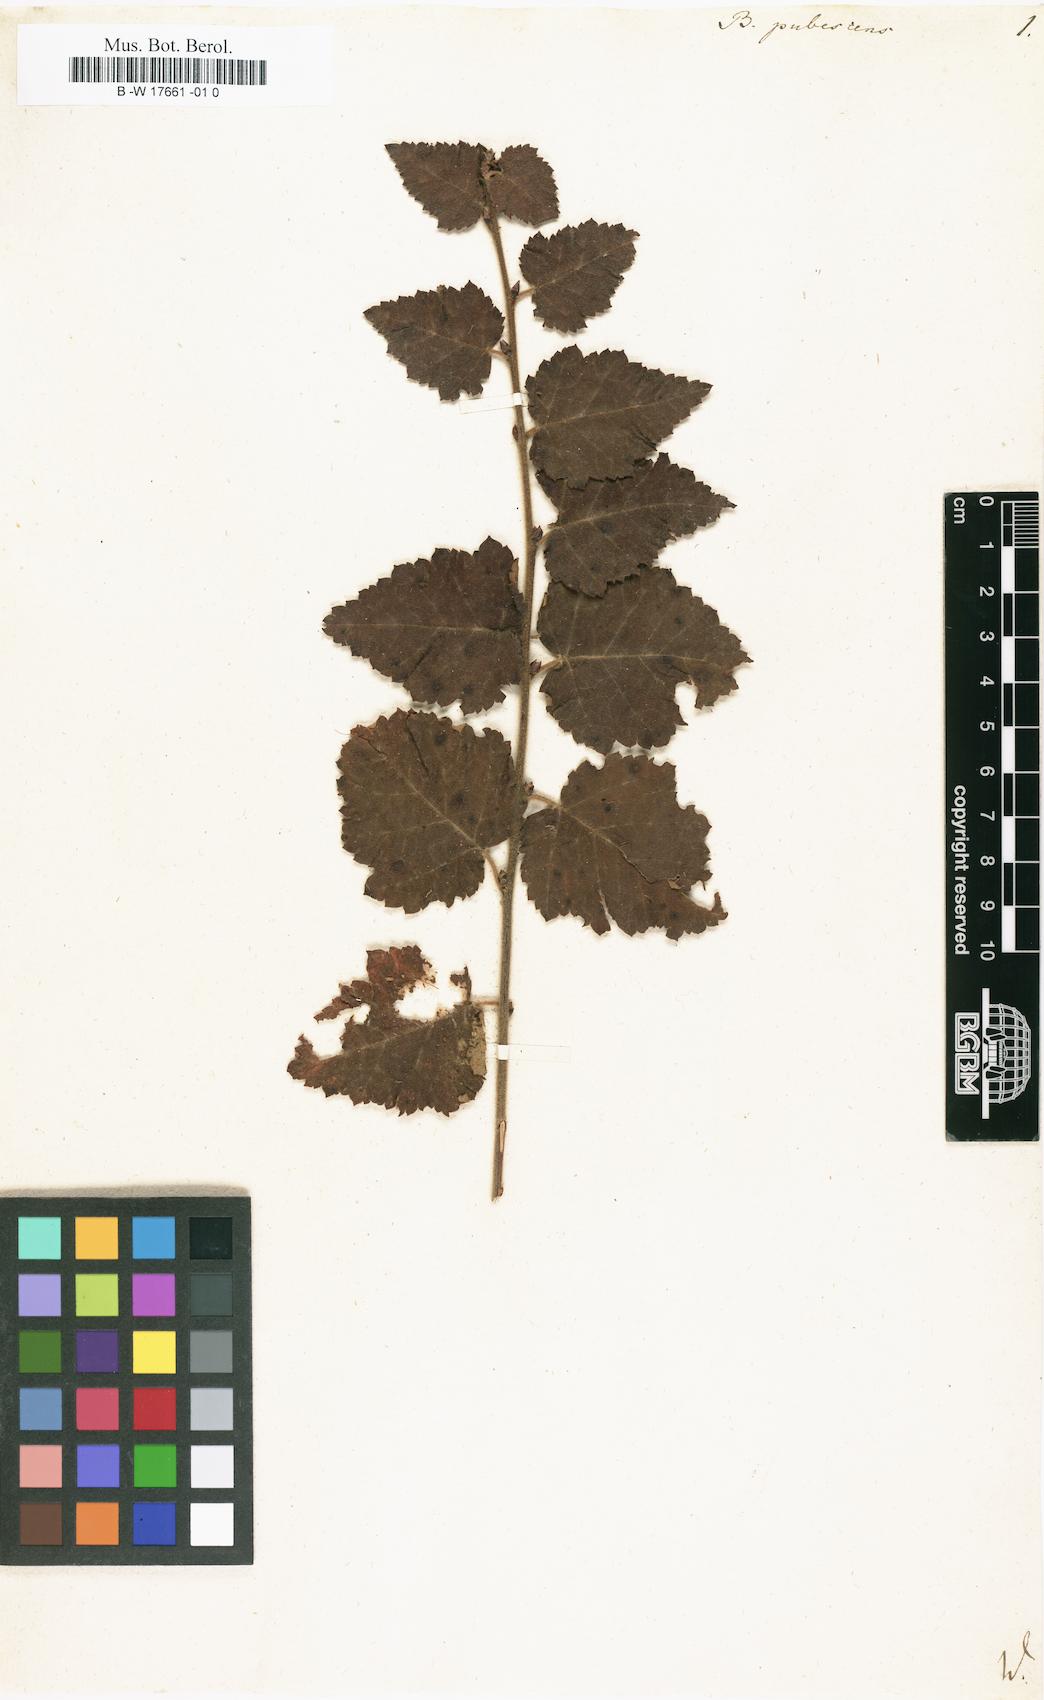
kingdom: Plantae
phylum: Tracheophyta
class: Magnoliopsida
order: Fagales
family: Betulaceae
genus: Betula
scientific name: Betula pubescens
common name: Downy birch
